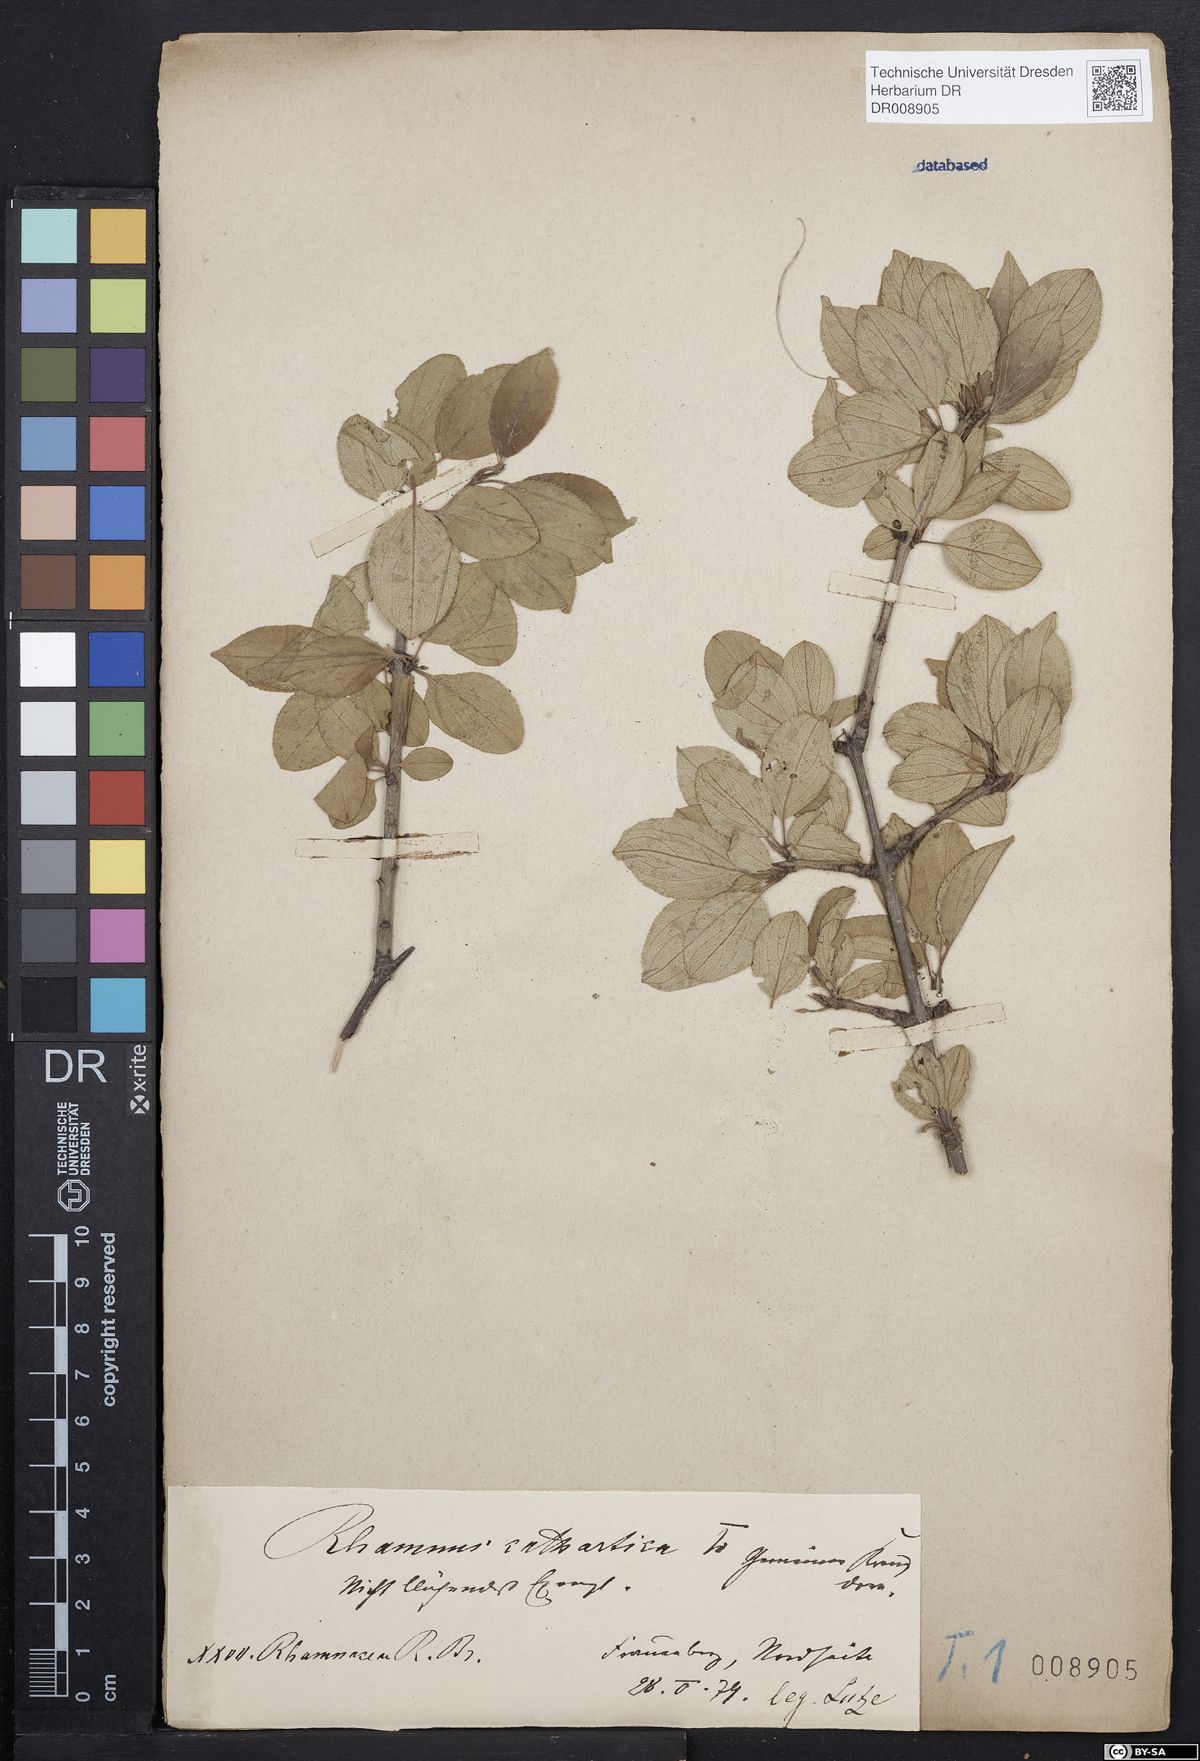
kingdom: Plantae
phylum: Tracheophyta
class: Magnoliopsida
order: Rosales
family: Rhamnaceae
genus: Rhamnus
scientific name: Rhamnus cathartica
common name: Common buckthorn
